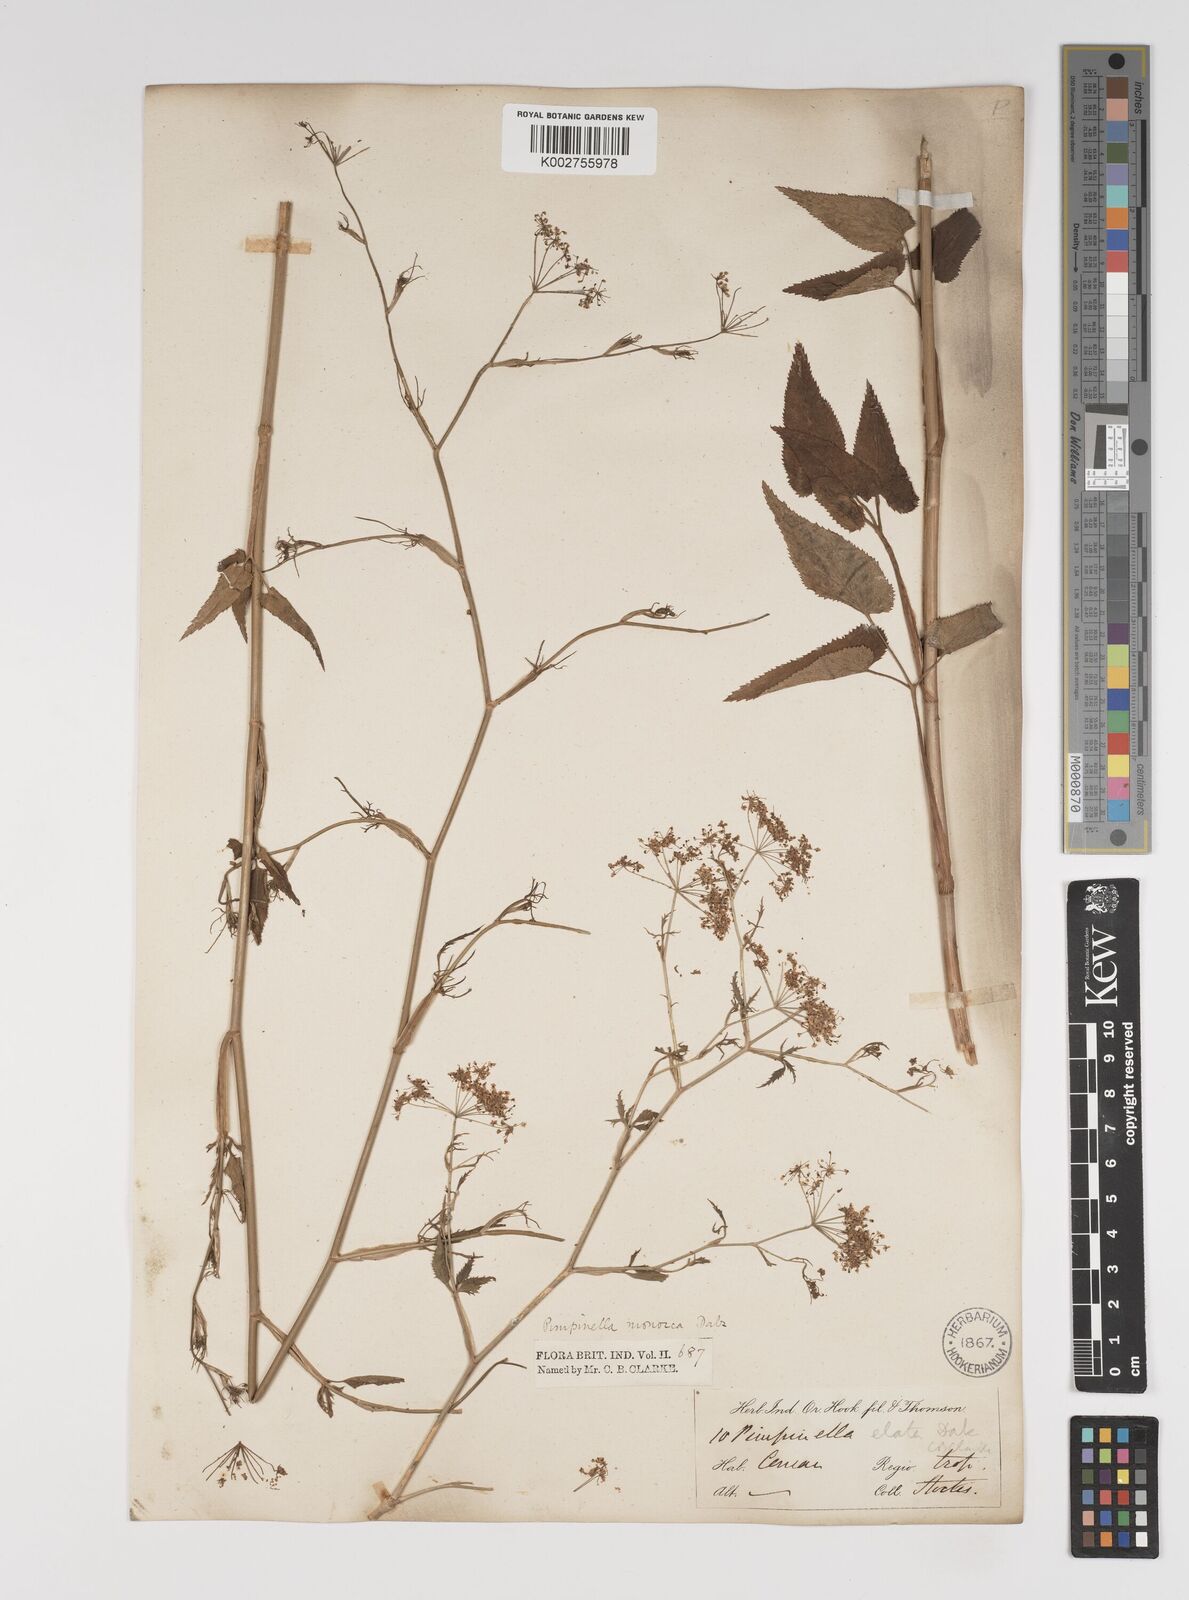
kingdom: Plantae
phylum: Tracheophyta
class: Magnoliopsida
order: Apiales
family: Apiaceae
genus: Pimpinella
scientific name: Pimpinella wallichiana
